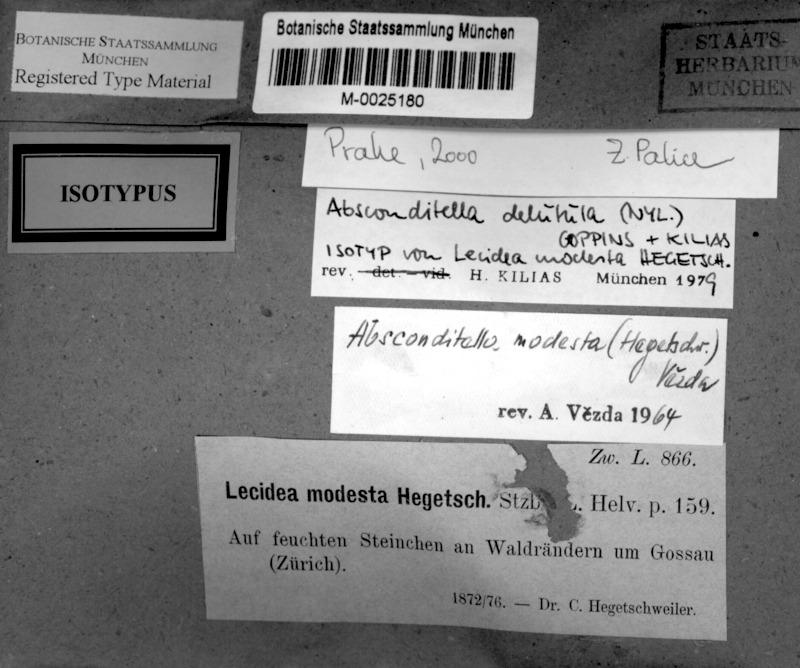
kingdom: Fungi
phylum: Ascomycota
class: Lecanoromycetes
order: Ostropales
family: Stictidaceae
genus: Absconditella
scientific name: Absconditella delutula
